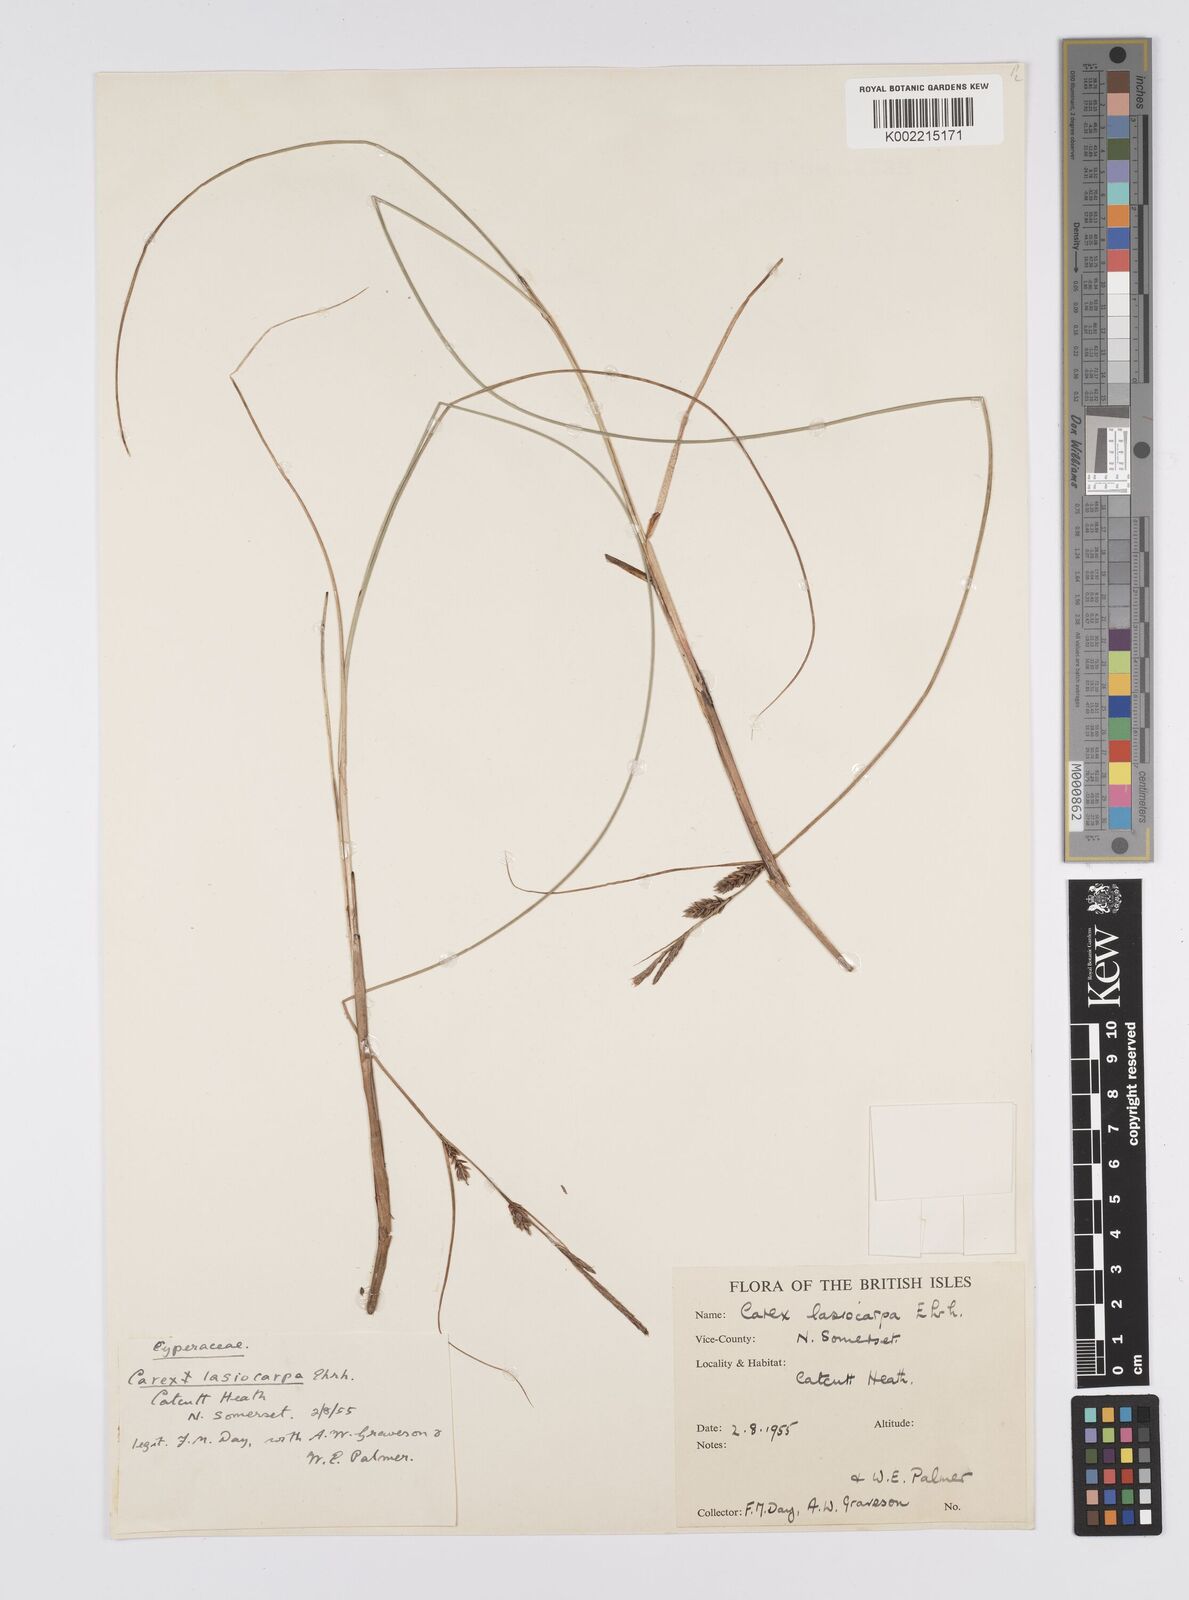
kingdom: Plantae
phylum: Tracheophyta
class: Liliopsida
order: Poales
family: Cyperaceae
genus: Carex
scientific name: Carex lasiocarpa
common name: Slender sedge
